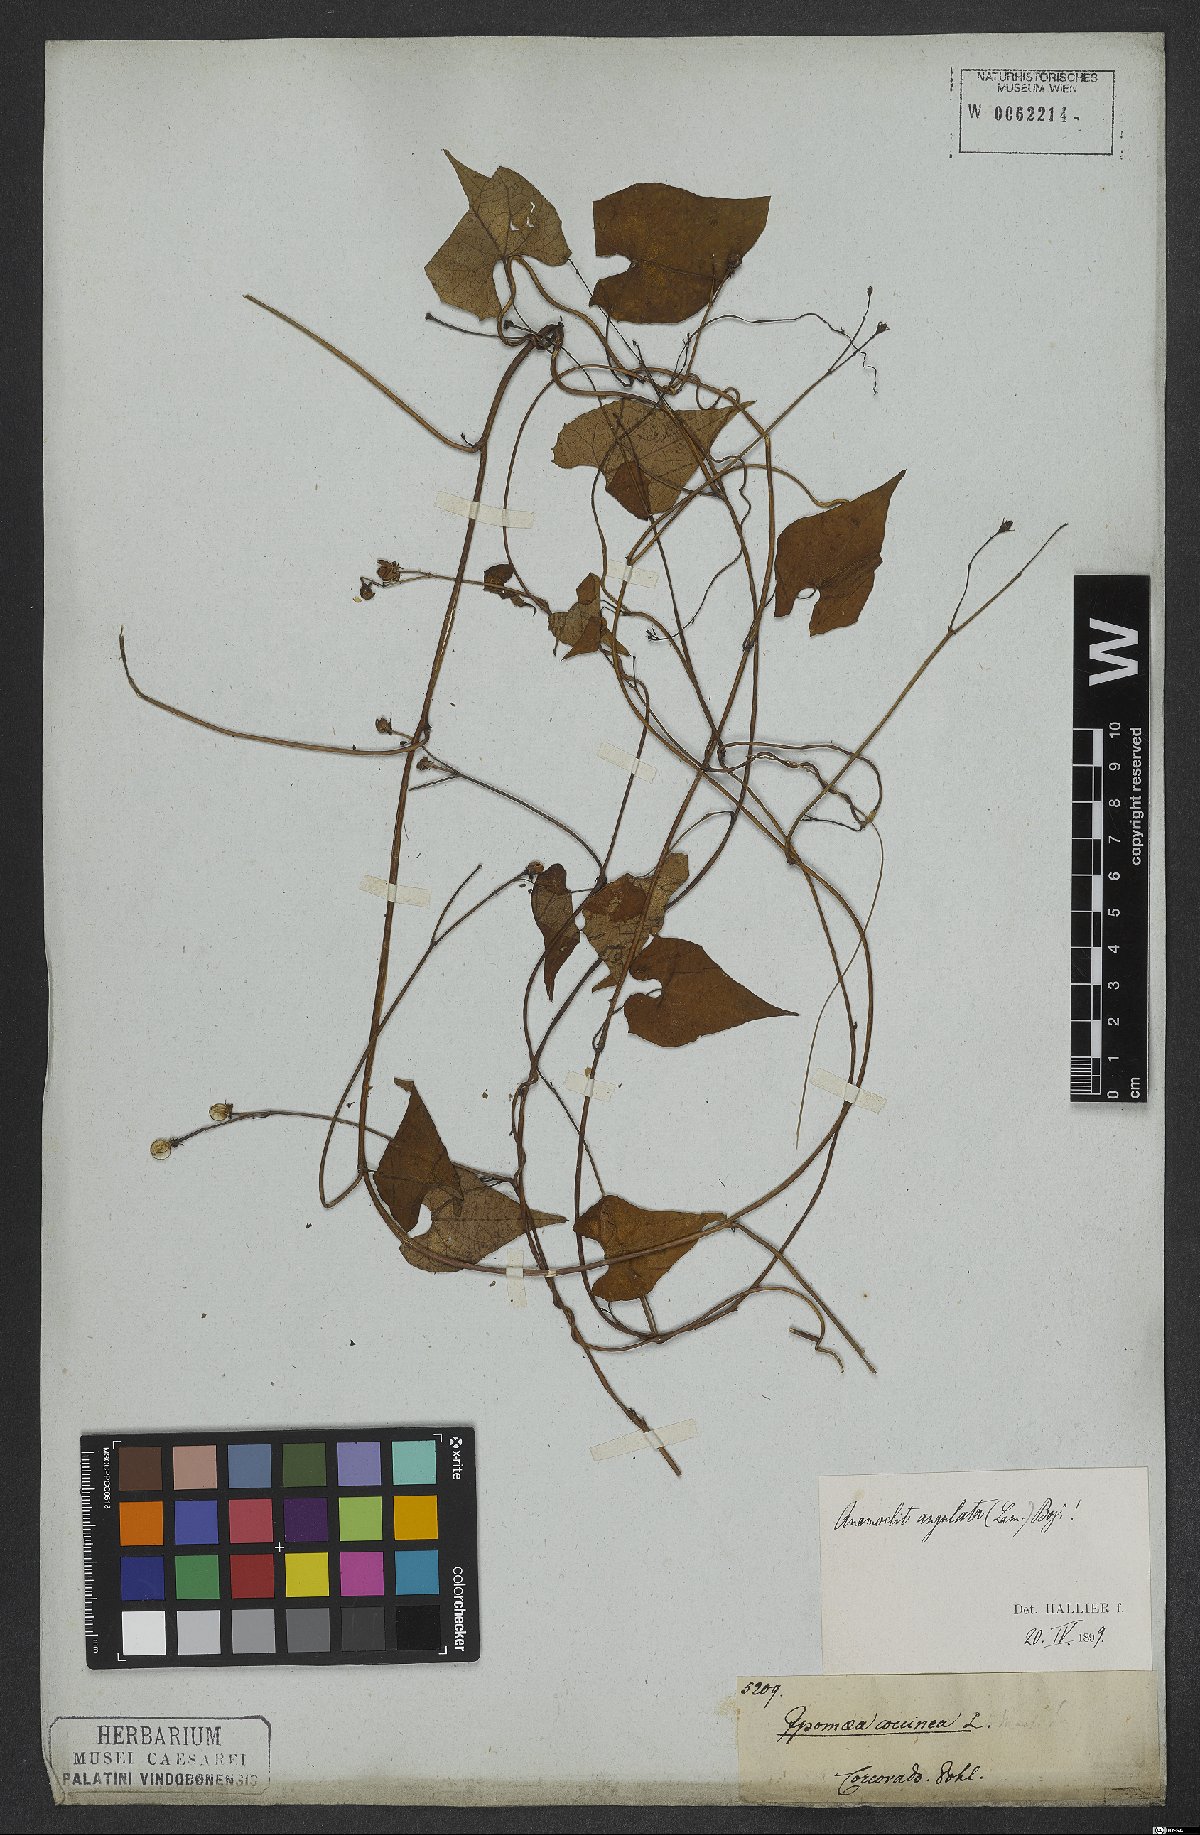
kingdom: Plantae
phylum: Tracheophyta
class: Magnoliopsida
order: Solanales
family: Convolvulaceae
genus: Ipomoea
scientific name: Ipomoea hederifolia
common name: Ivy-leaf morning-glory
